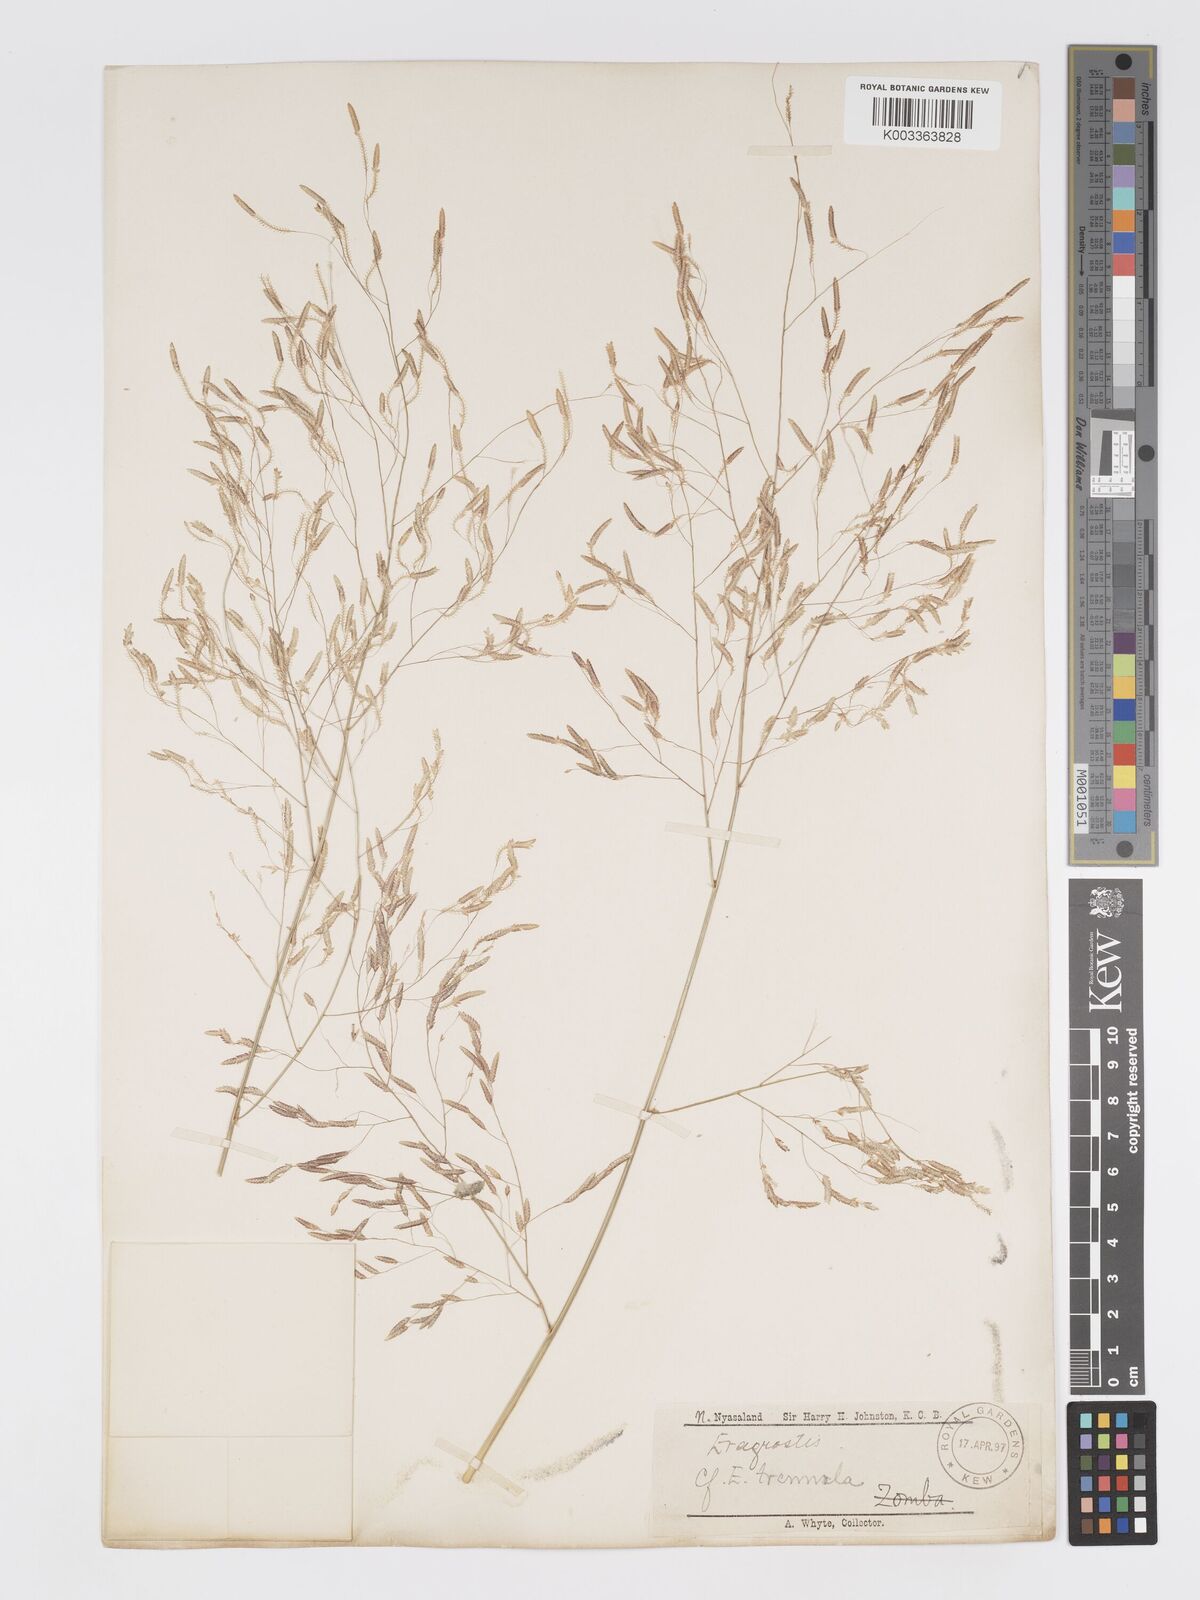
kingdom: Plantae
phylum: Tracheophyta
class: Liliopsida
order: Poales
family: Poaceae
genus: Eragrostis
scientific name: Eragrostis tremula
